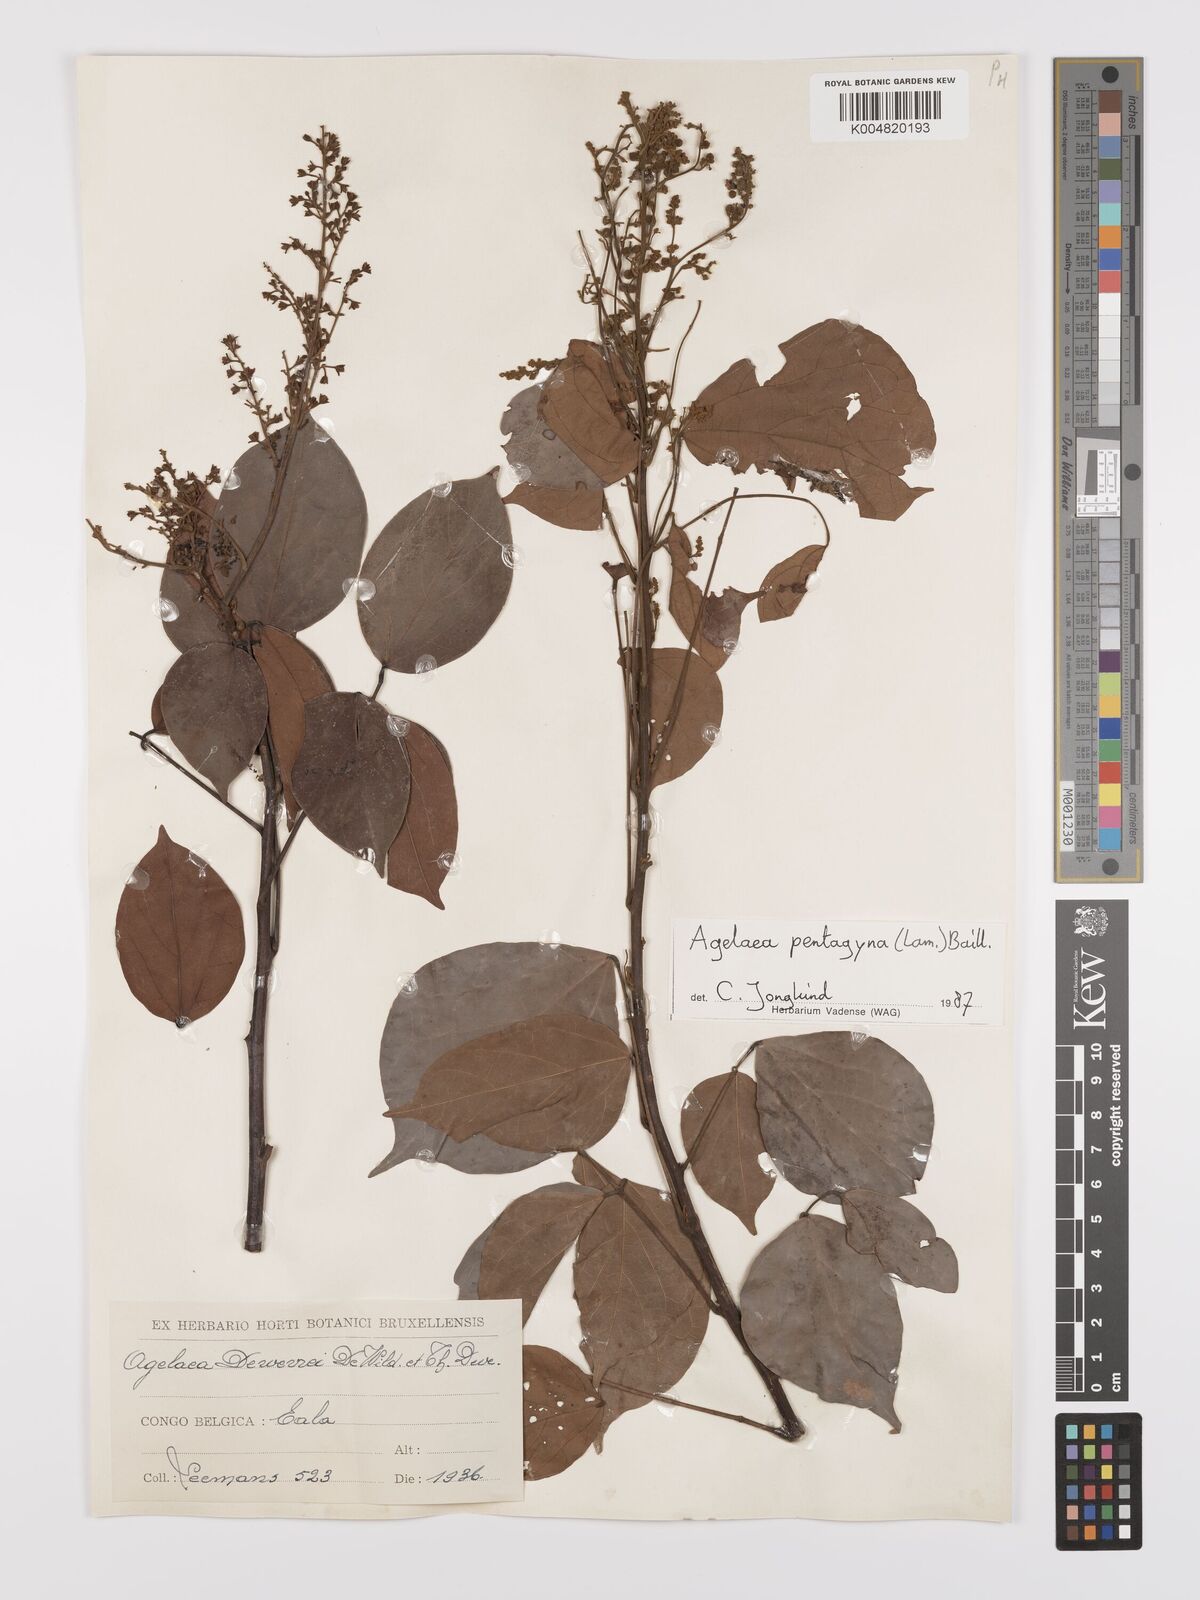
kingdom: Plantae
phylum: Tracheophyta
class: Magnoliopsida
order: Oxalidales
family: Connaraceae
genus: Agelaea
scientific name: Agelaea pentagyna
